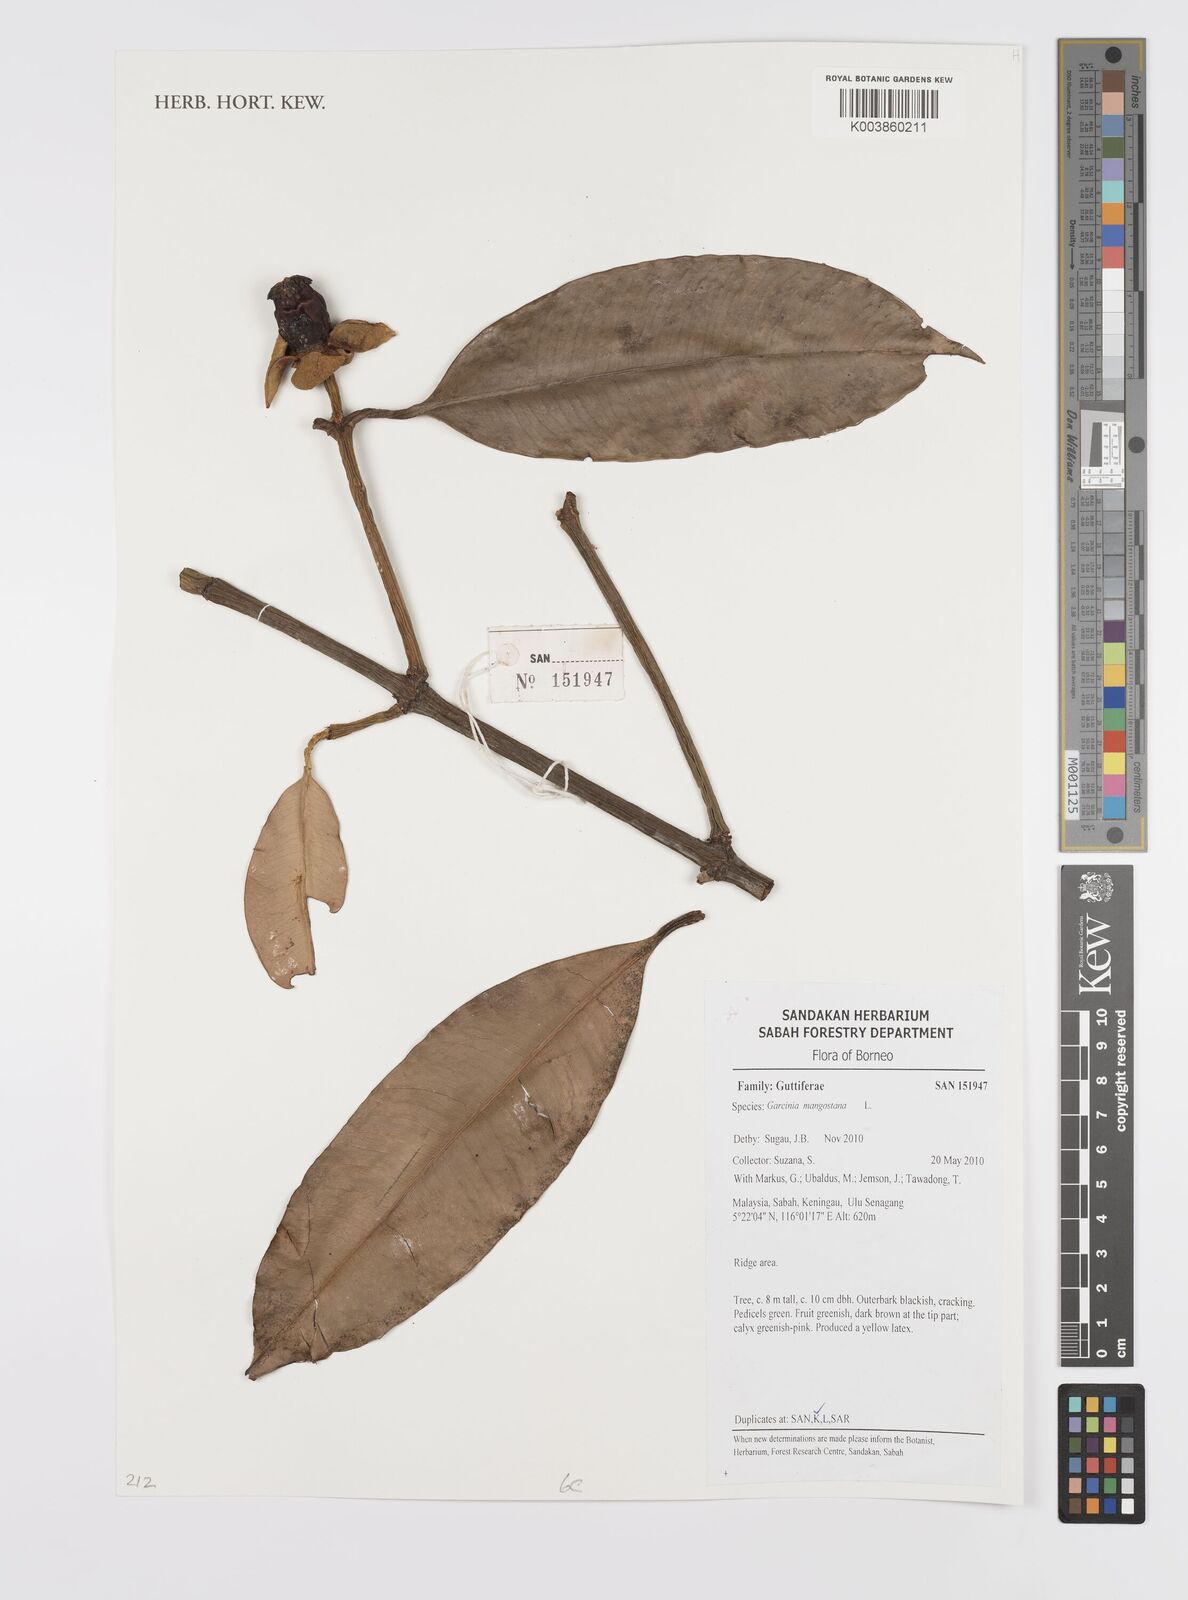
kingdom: Plantae
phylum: Tracheophyta
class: Magnoliopsida
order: Malpighiales
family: Clusiaceae
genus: Garcinia
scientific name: Garcinia mangostana
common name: Mangosteen
